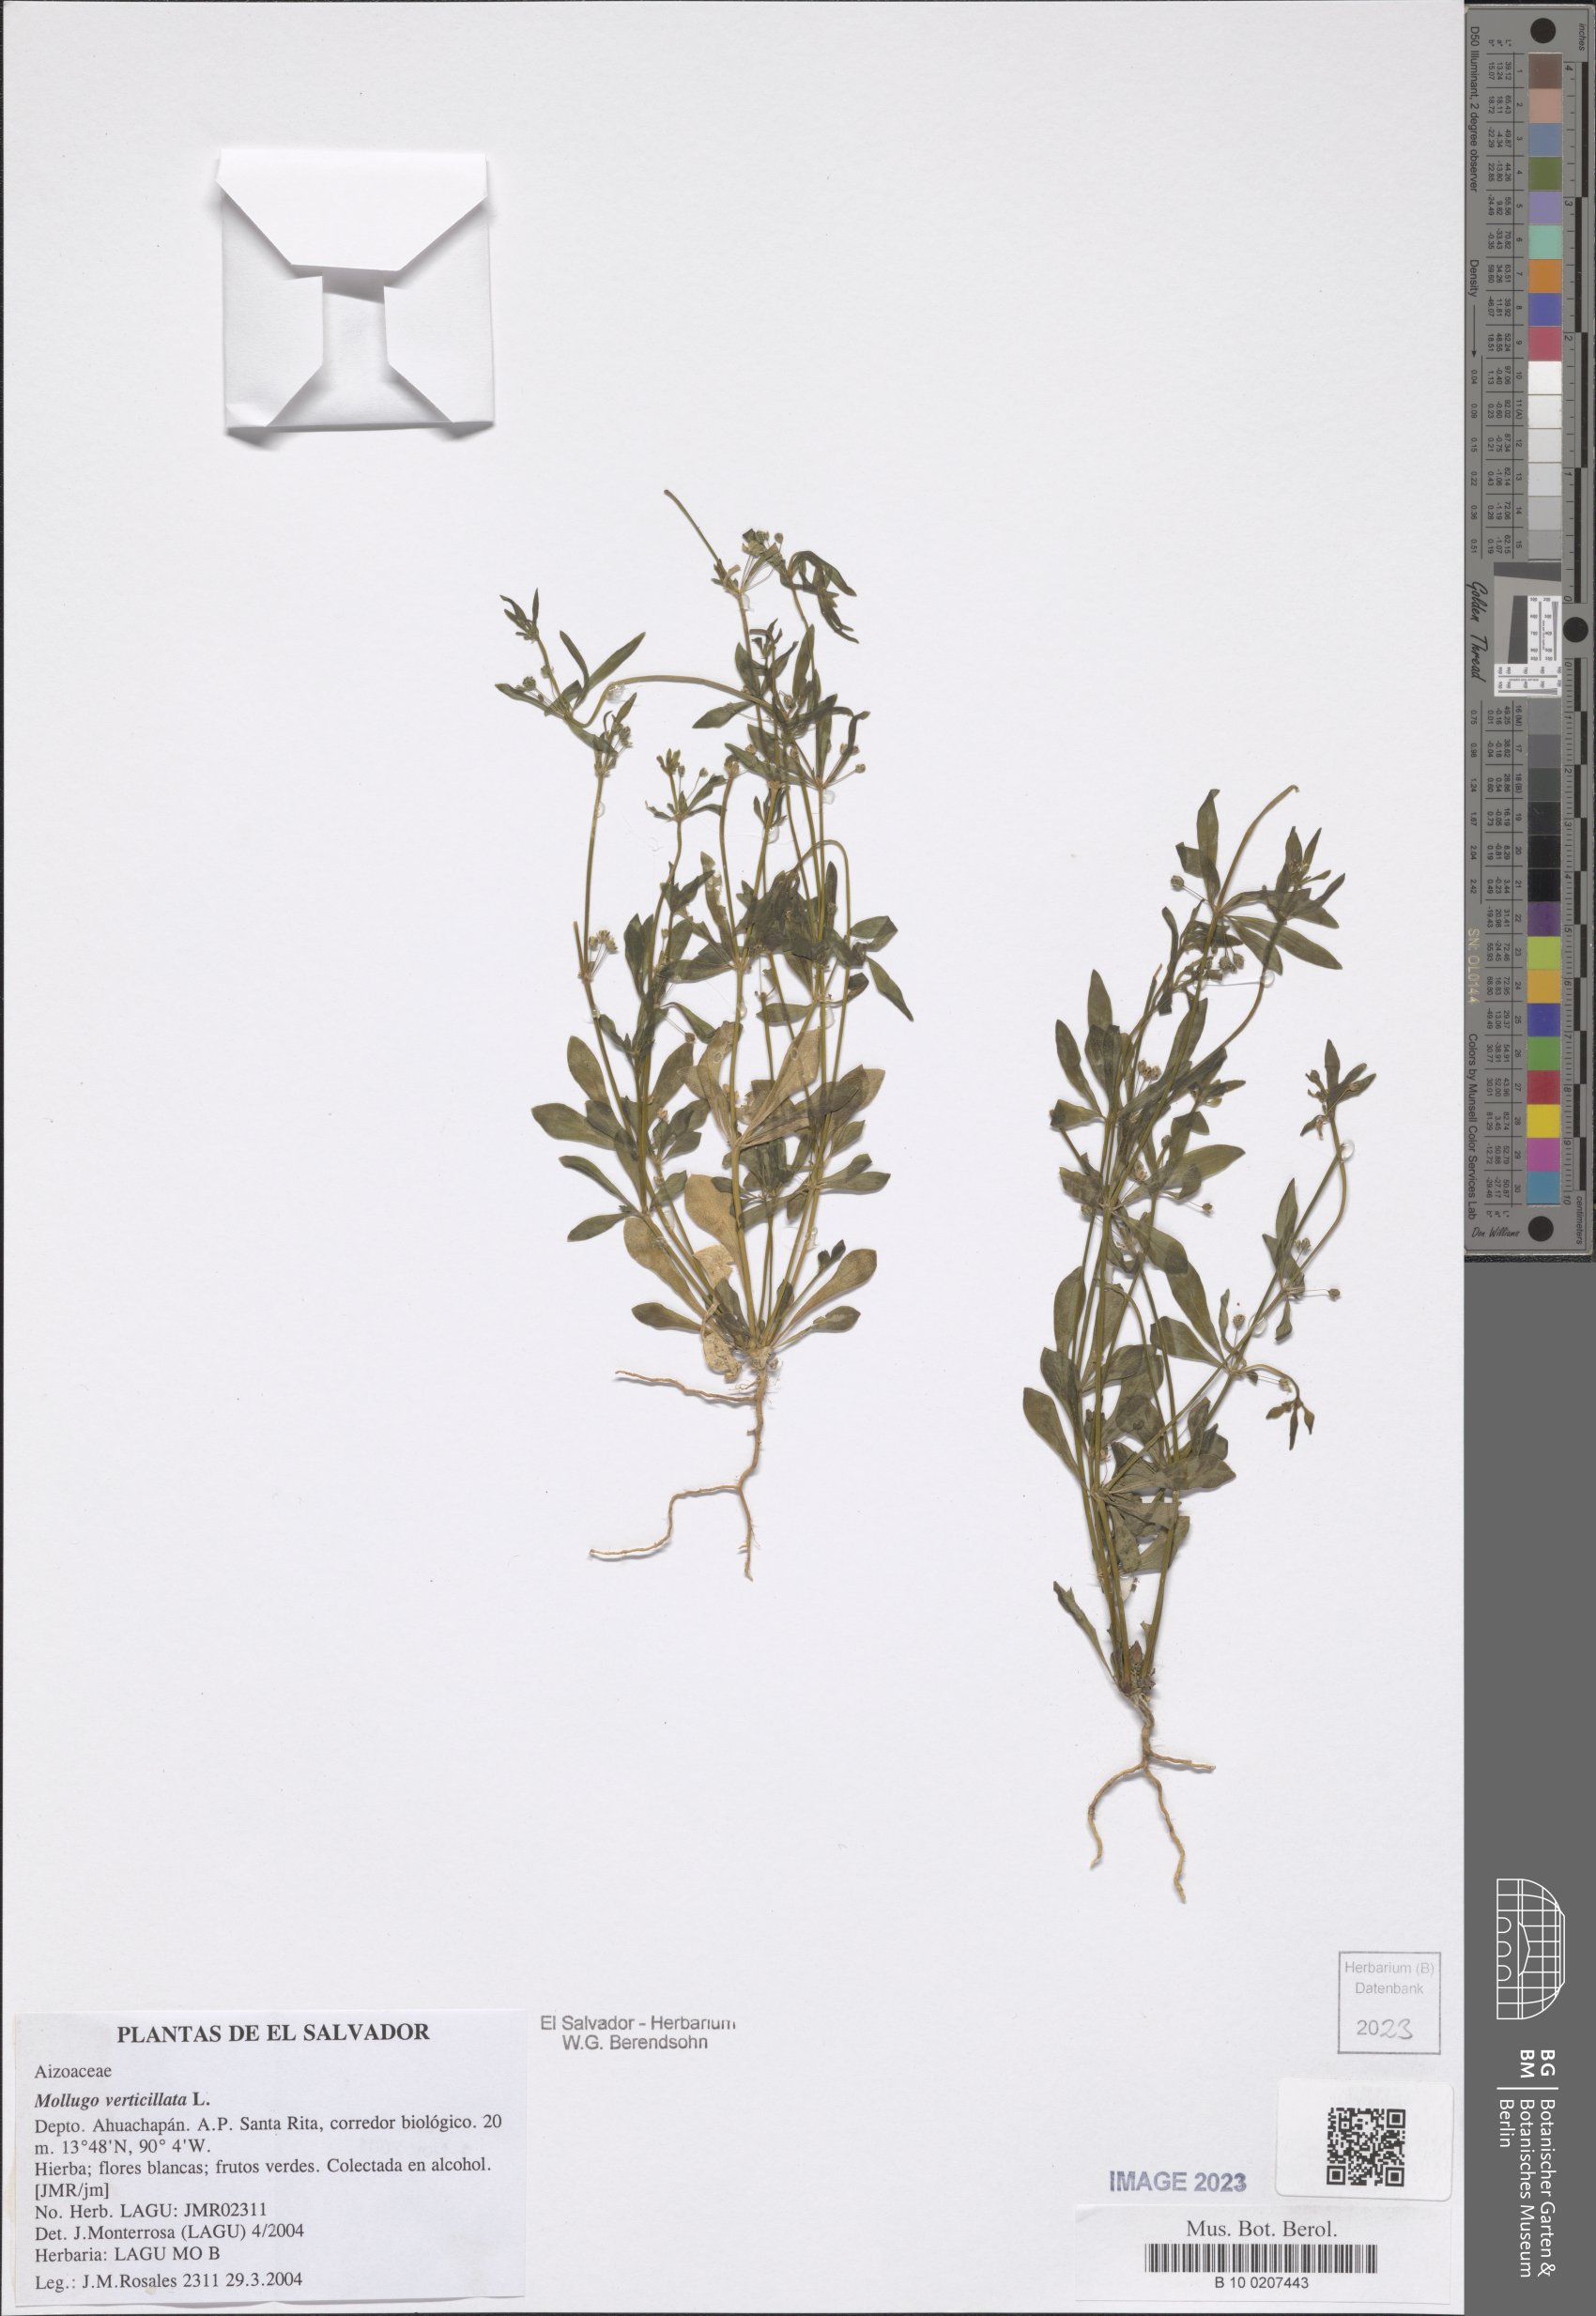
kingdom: Plantae
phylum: Tracheophyta
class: Magnoliopsida
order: Caryophyllales
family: Molluginaceae
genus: Mollugo
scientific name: Mollugo verticillata
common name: Green carpetweed
